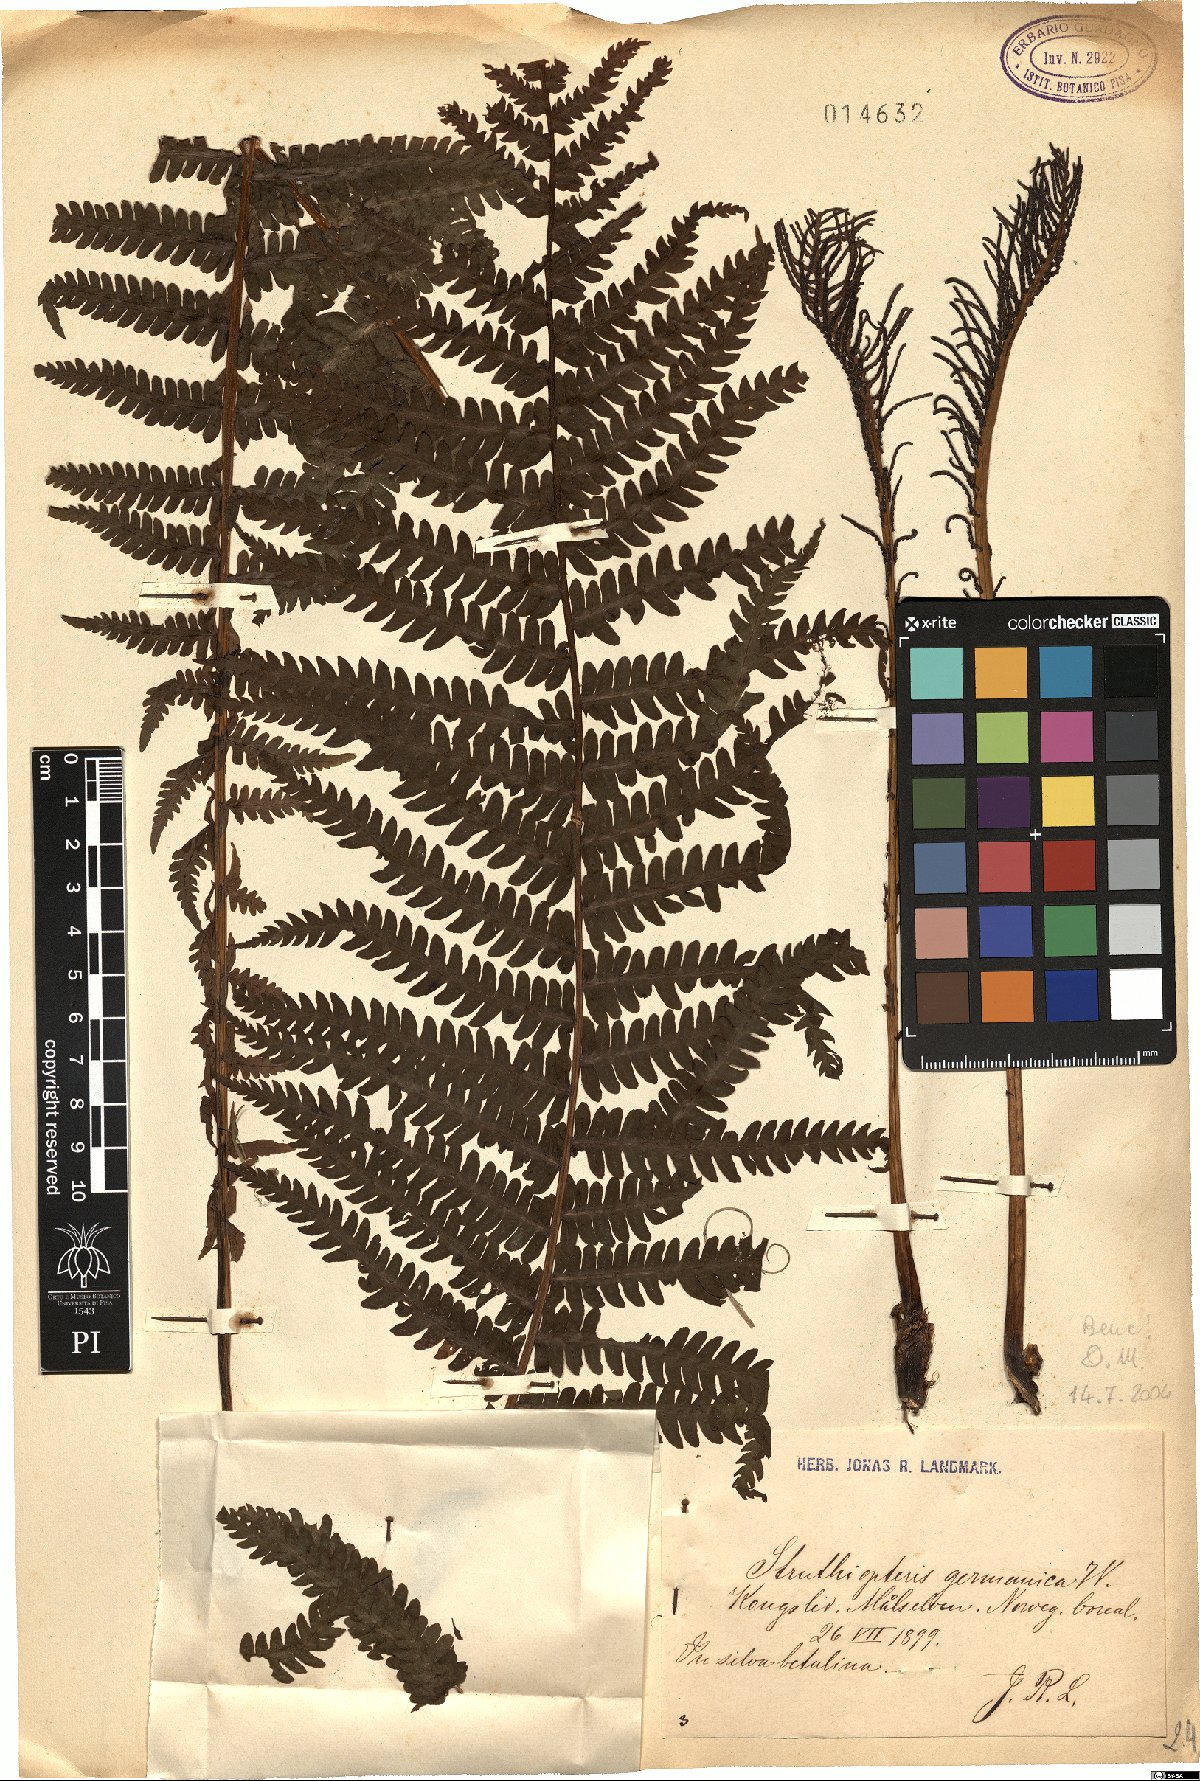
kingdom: Plantae
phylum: Tracheophyta
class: Polypodiopsida
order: Polypodiales
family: Onocleaceae
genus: Matteuccia
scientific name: Matteuccia struthiopteris
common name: Ostrich fern
